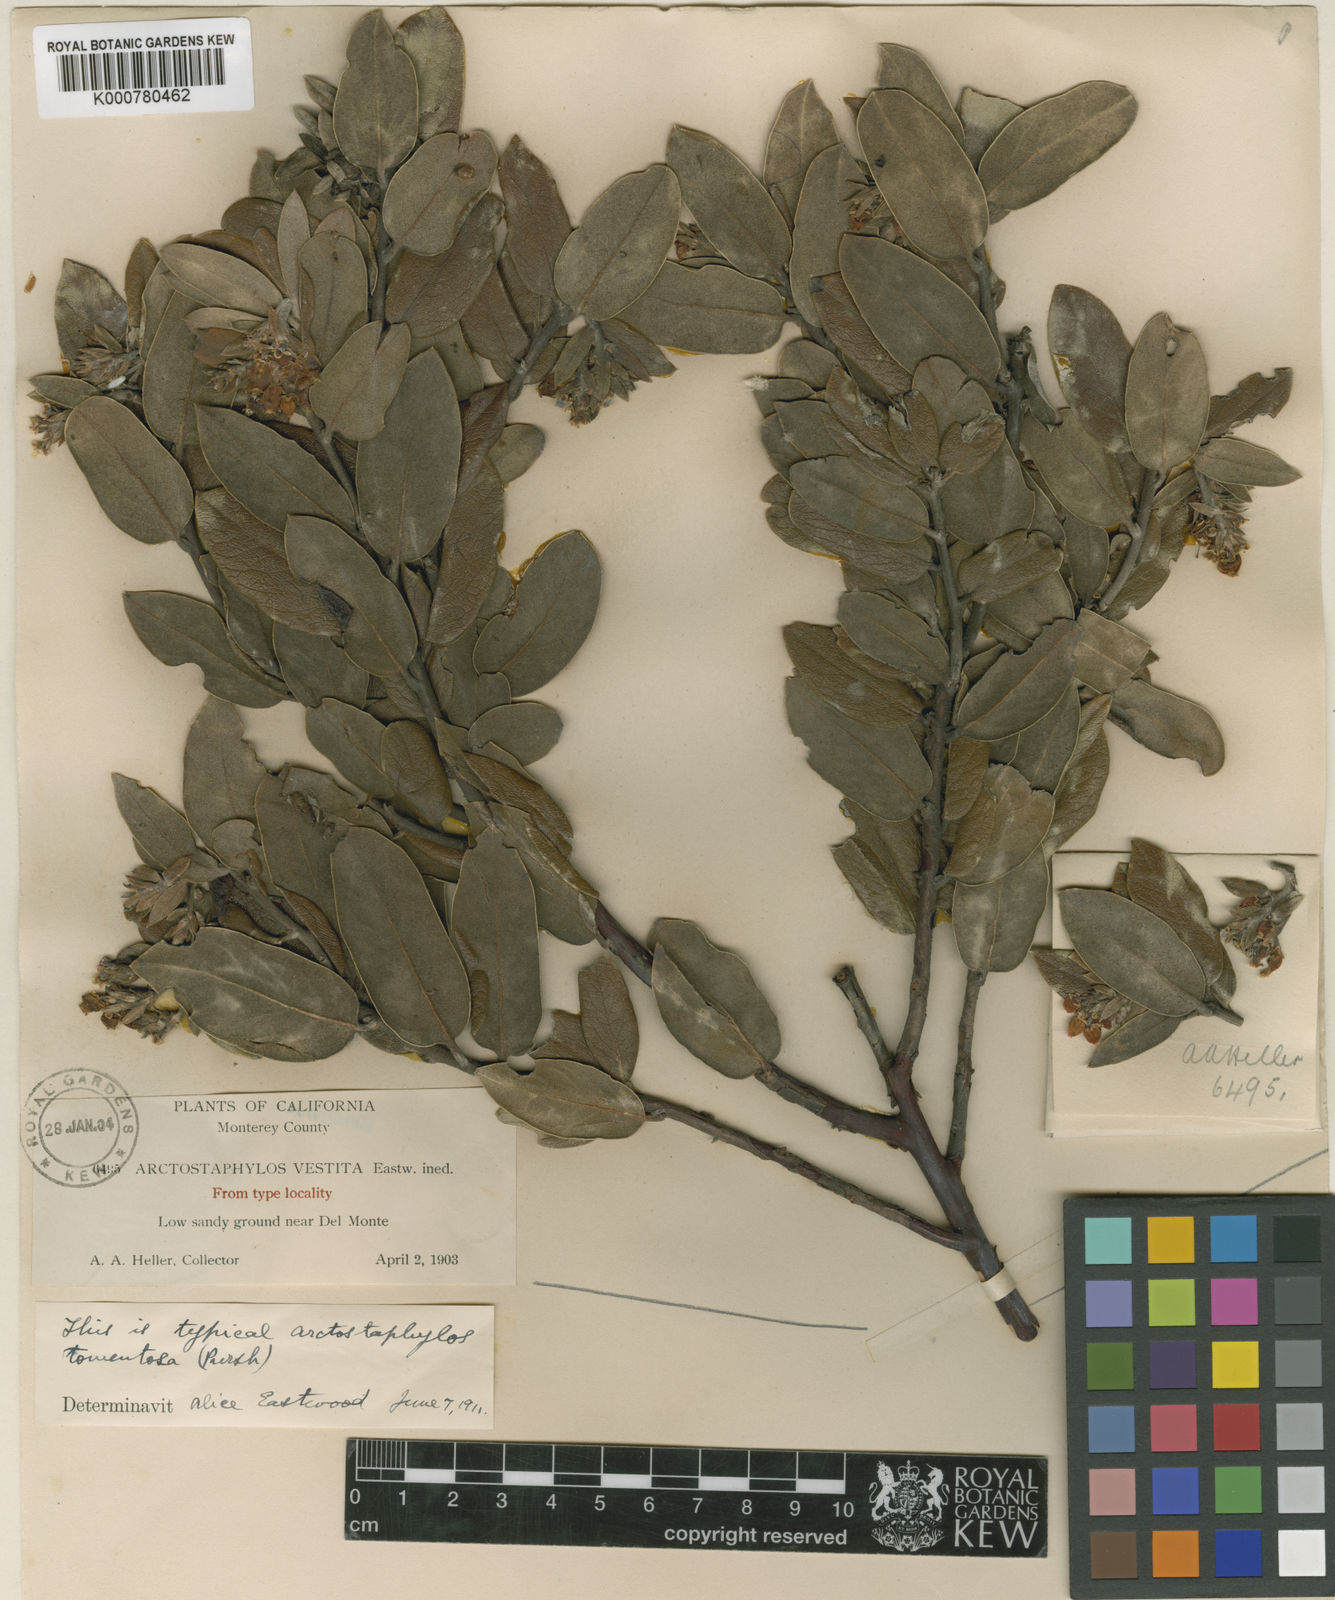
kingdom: Plantae
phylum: Tracheophyta
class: Magnoliopsida
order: Ericales
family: Ericaceae
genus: Arctostaphylos
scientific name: Arctostaphylos tomentosa
